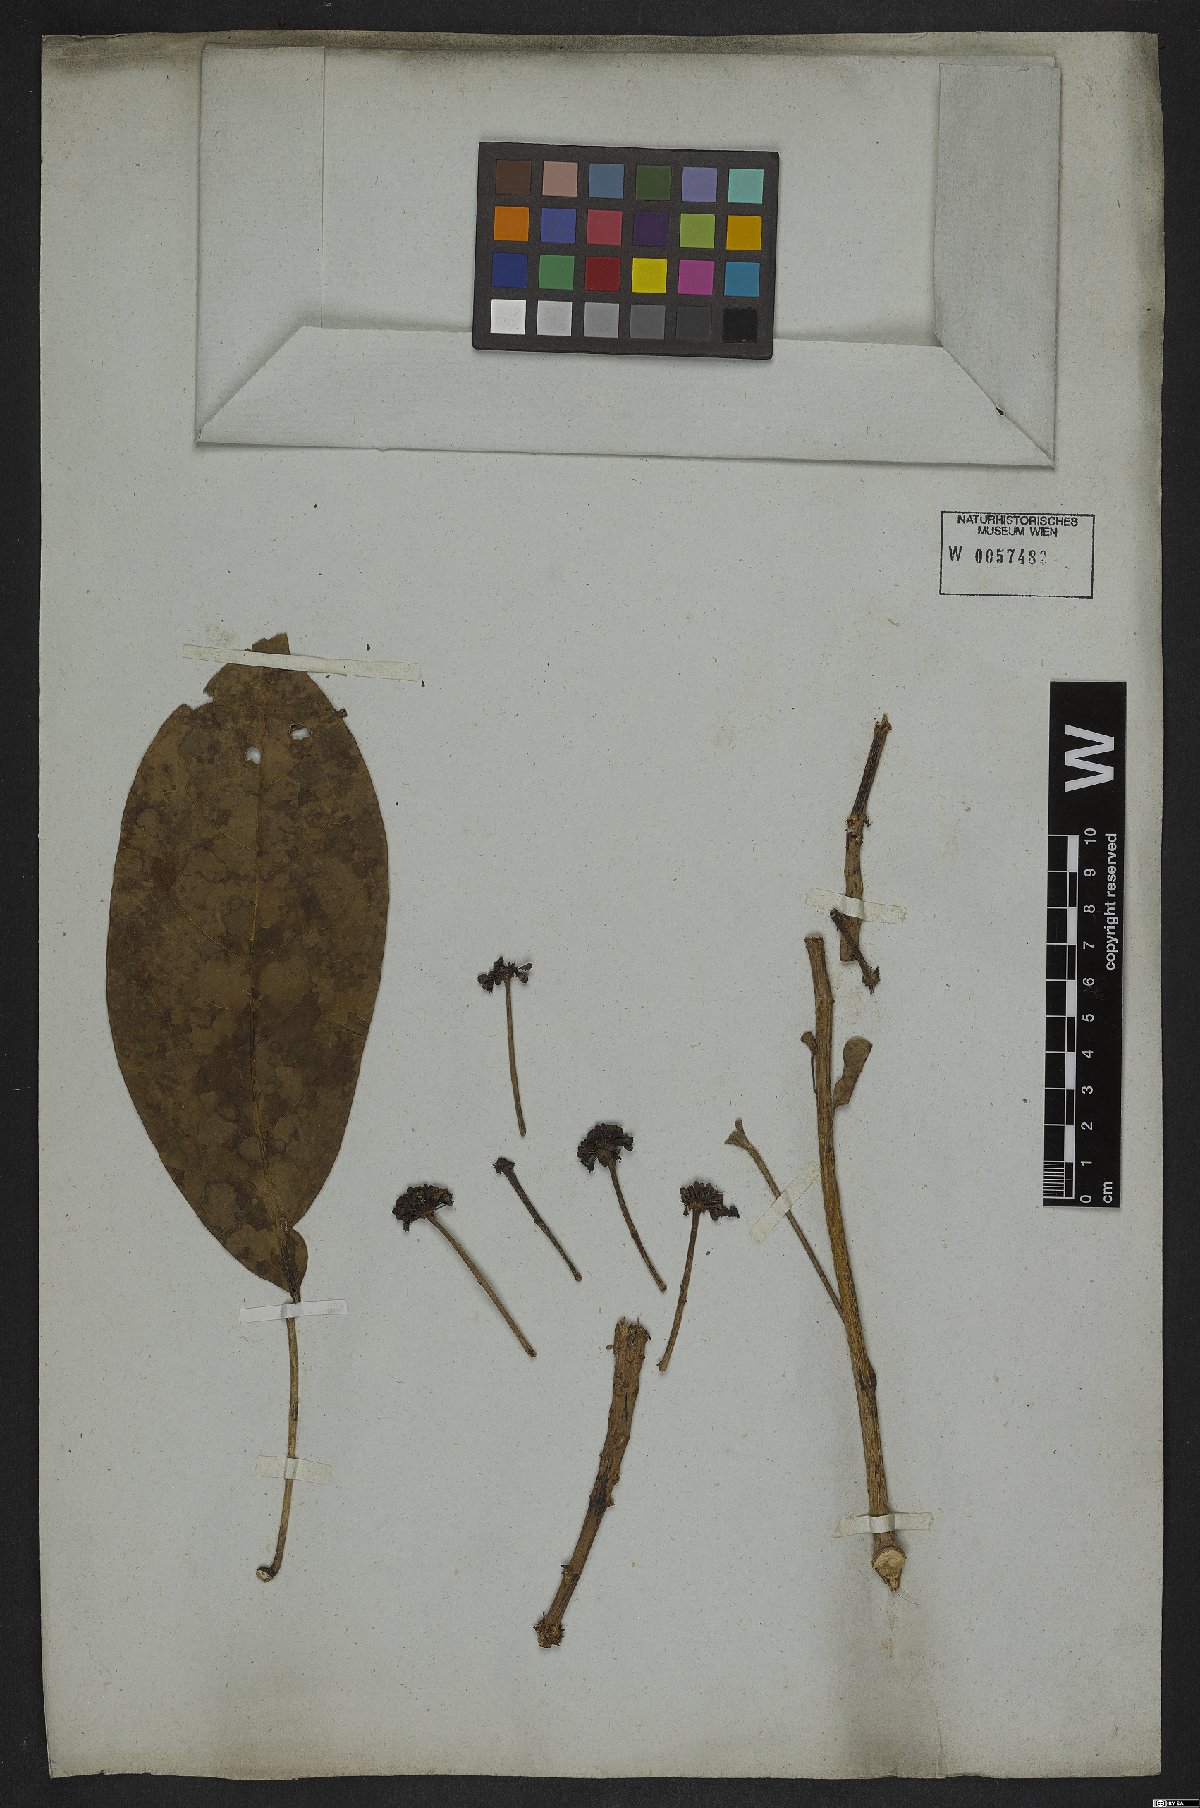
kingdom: Plantae
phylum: Tracheophyta
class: Magnoliopsida
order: Apiales
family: Araliaceae
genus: Dendropanax
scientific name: Dendropanax cuneatus
